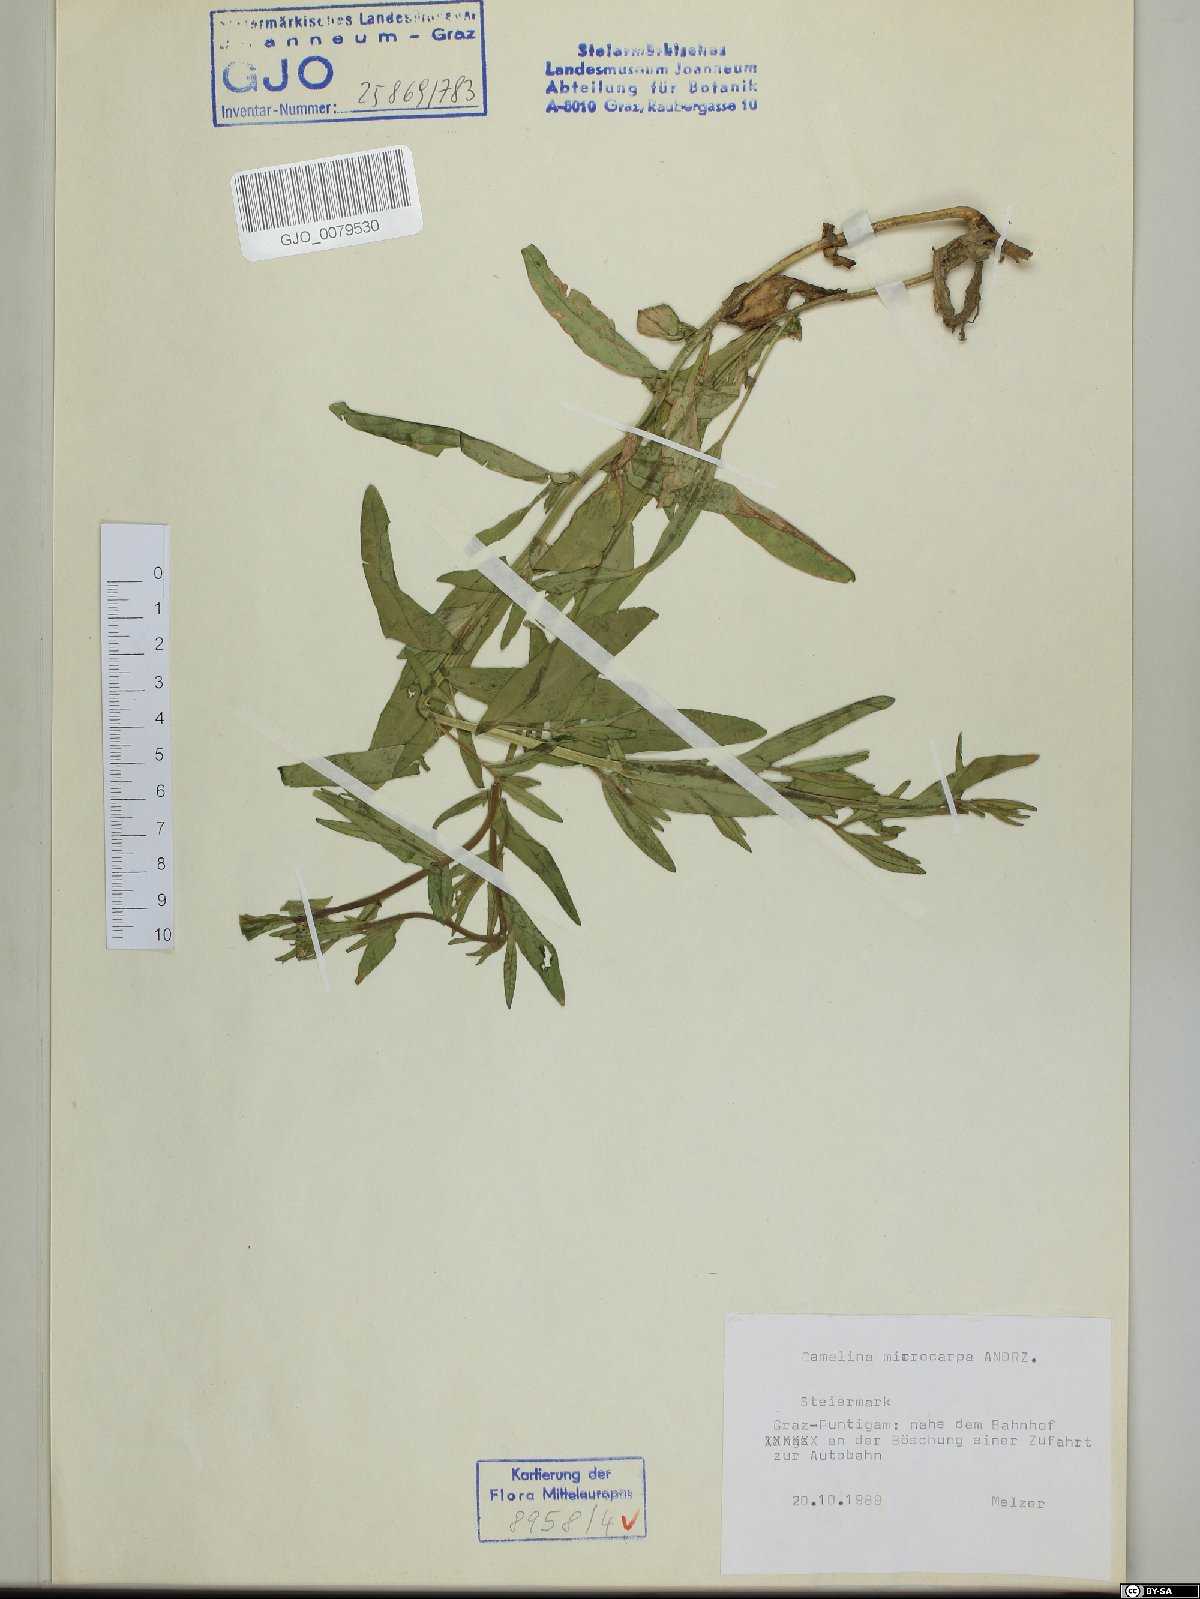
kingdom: Plantae
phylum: Tracheophyta
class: Magnoliopsida
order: Brassicales
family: Brassicaceae
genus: Camelina
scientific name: Camelina microcarpa
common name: Lesser gold-of-pleasure
